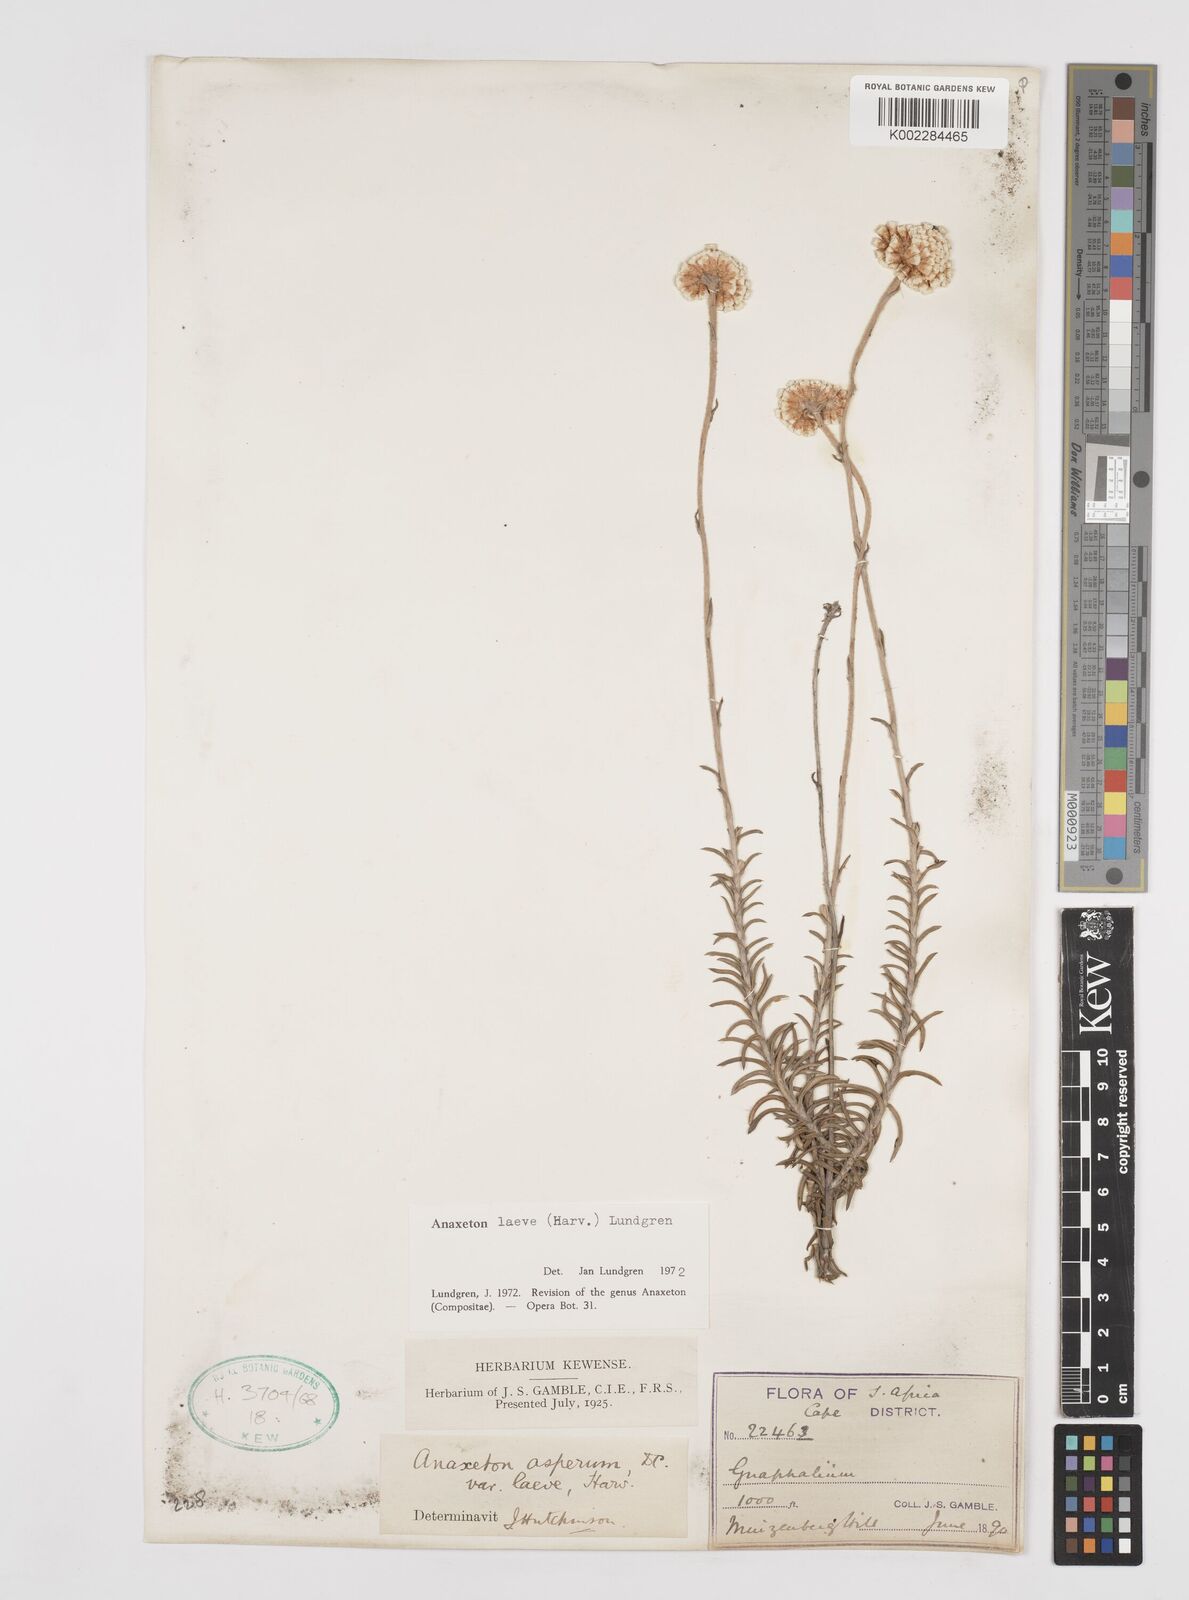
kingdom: Plantae
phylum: Tracheophyta
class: Magnoliopsida
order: Asterales
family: Asteraceae
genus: Anaxeton
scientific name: Anaxeton laeve
